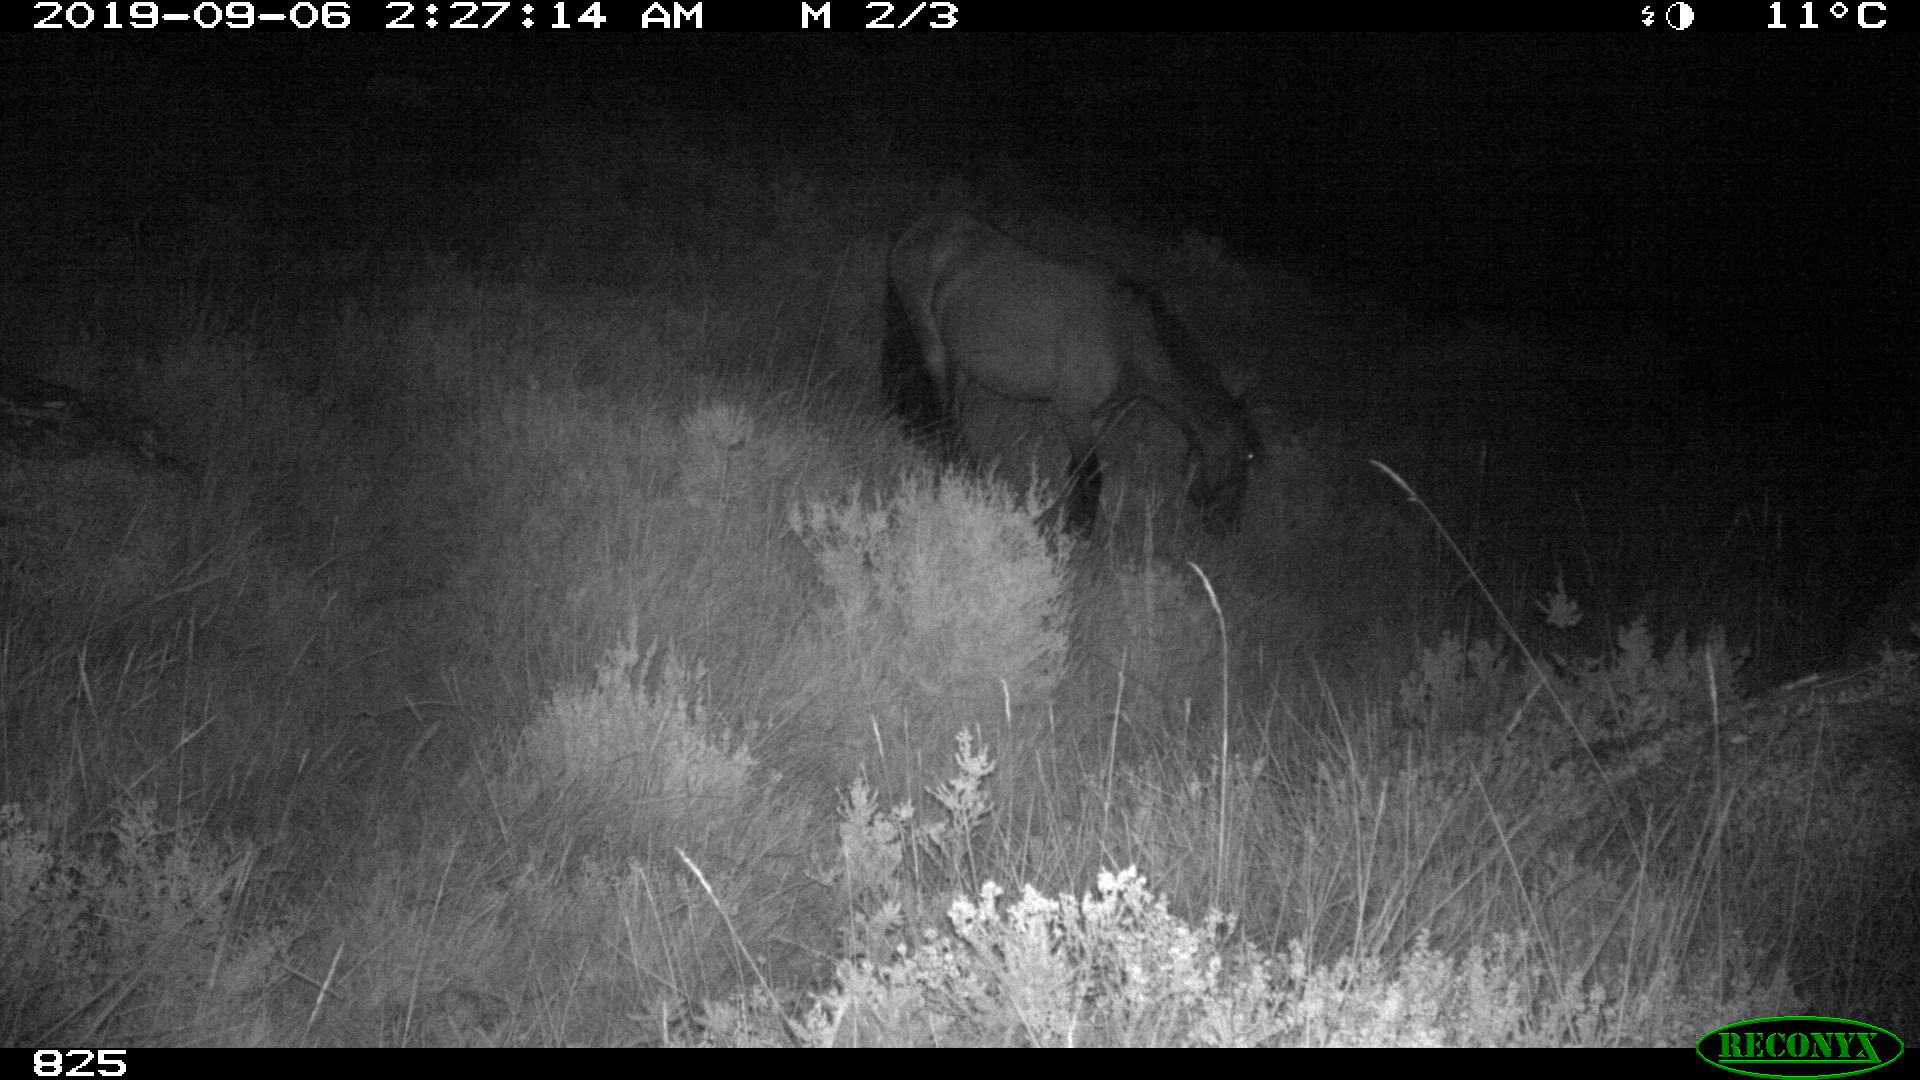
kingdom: Animalia
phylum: Chordata
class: Mammalia
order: Perissodactyla
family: Equidae
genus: Equus
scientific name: Equus caballus
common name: Horse
